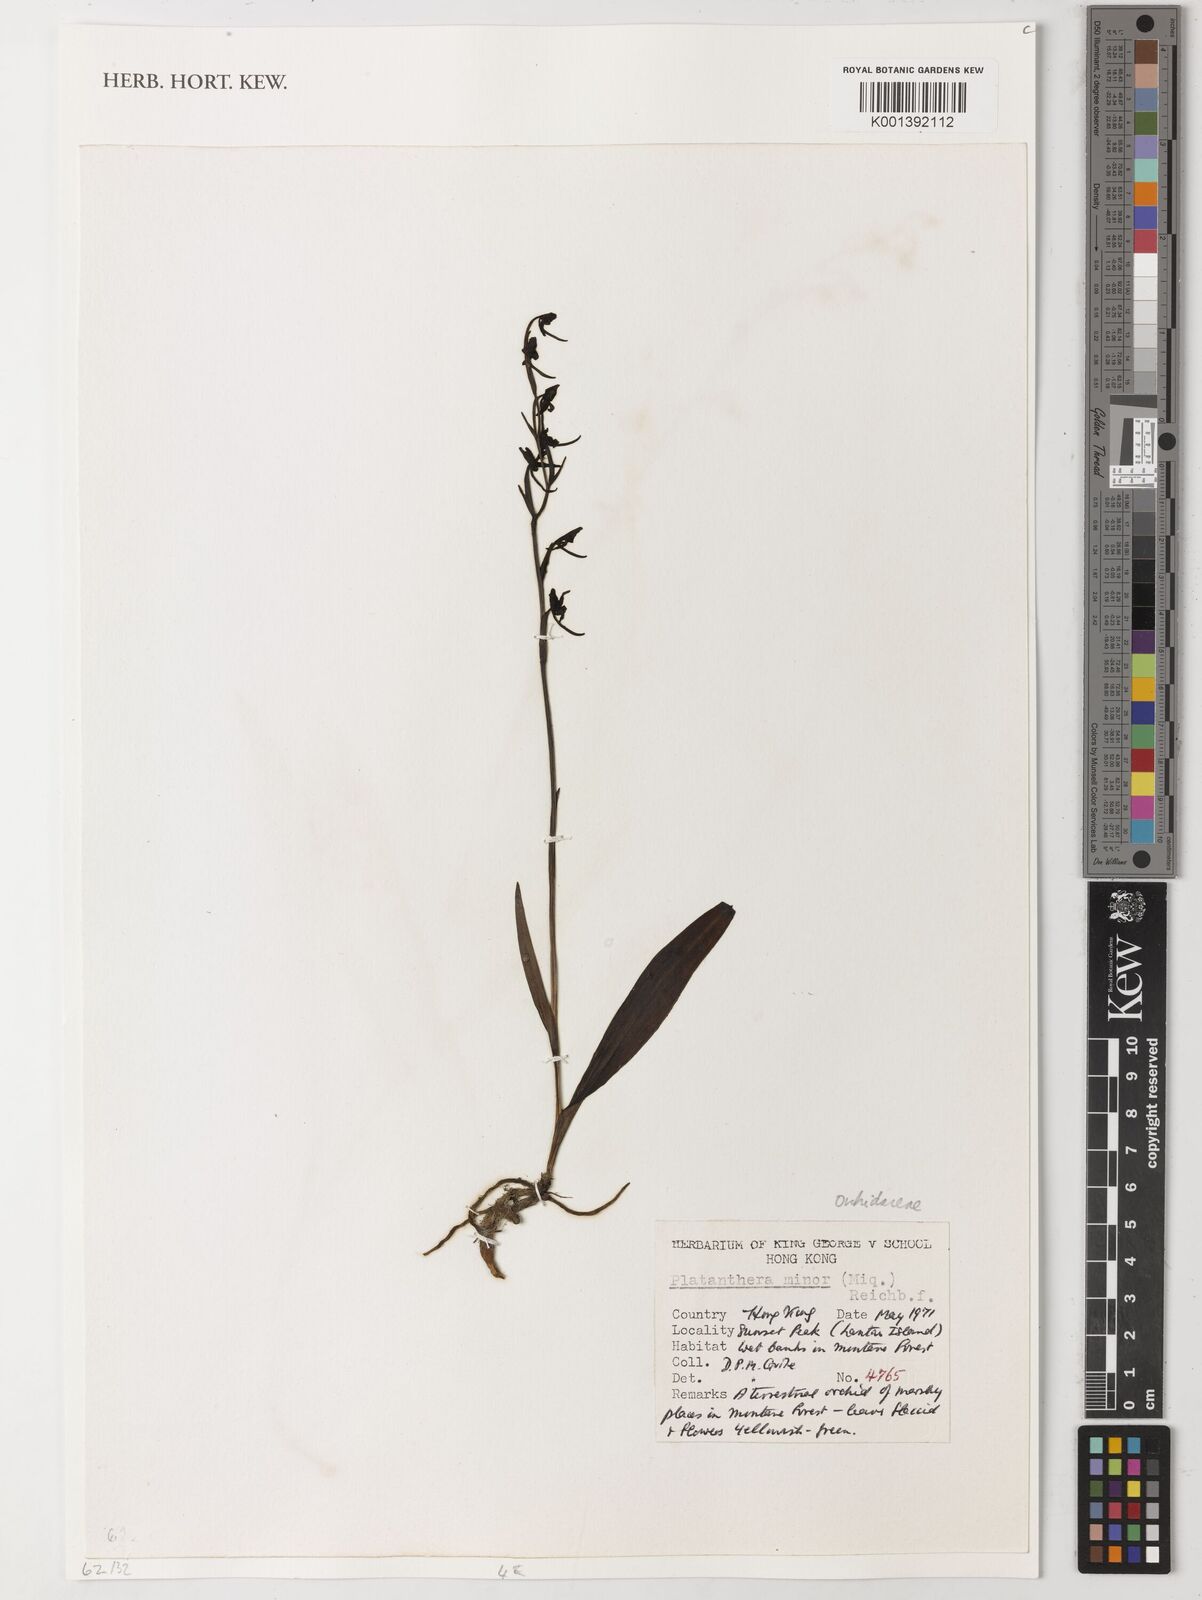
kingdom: Plantae
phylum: Tracheophyta
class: Liliopsida
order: Asparagales
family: Orchidaceae
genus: Platanthera
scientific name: Platanthera minor
